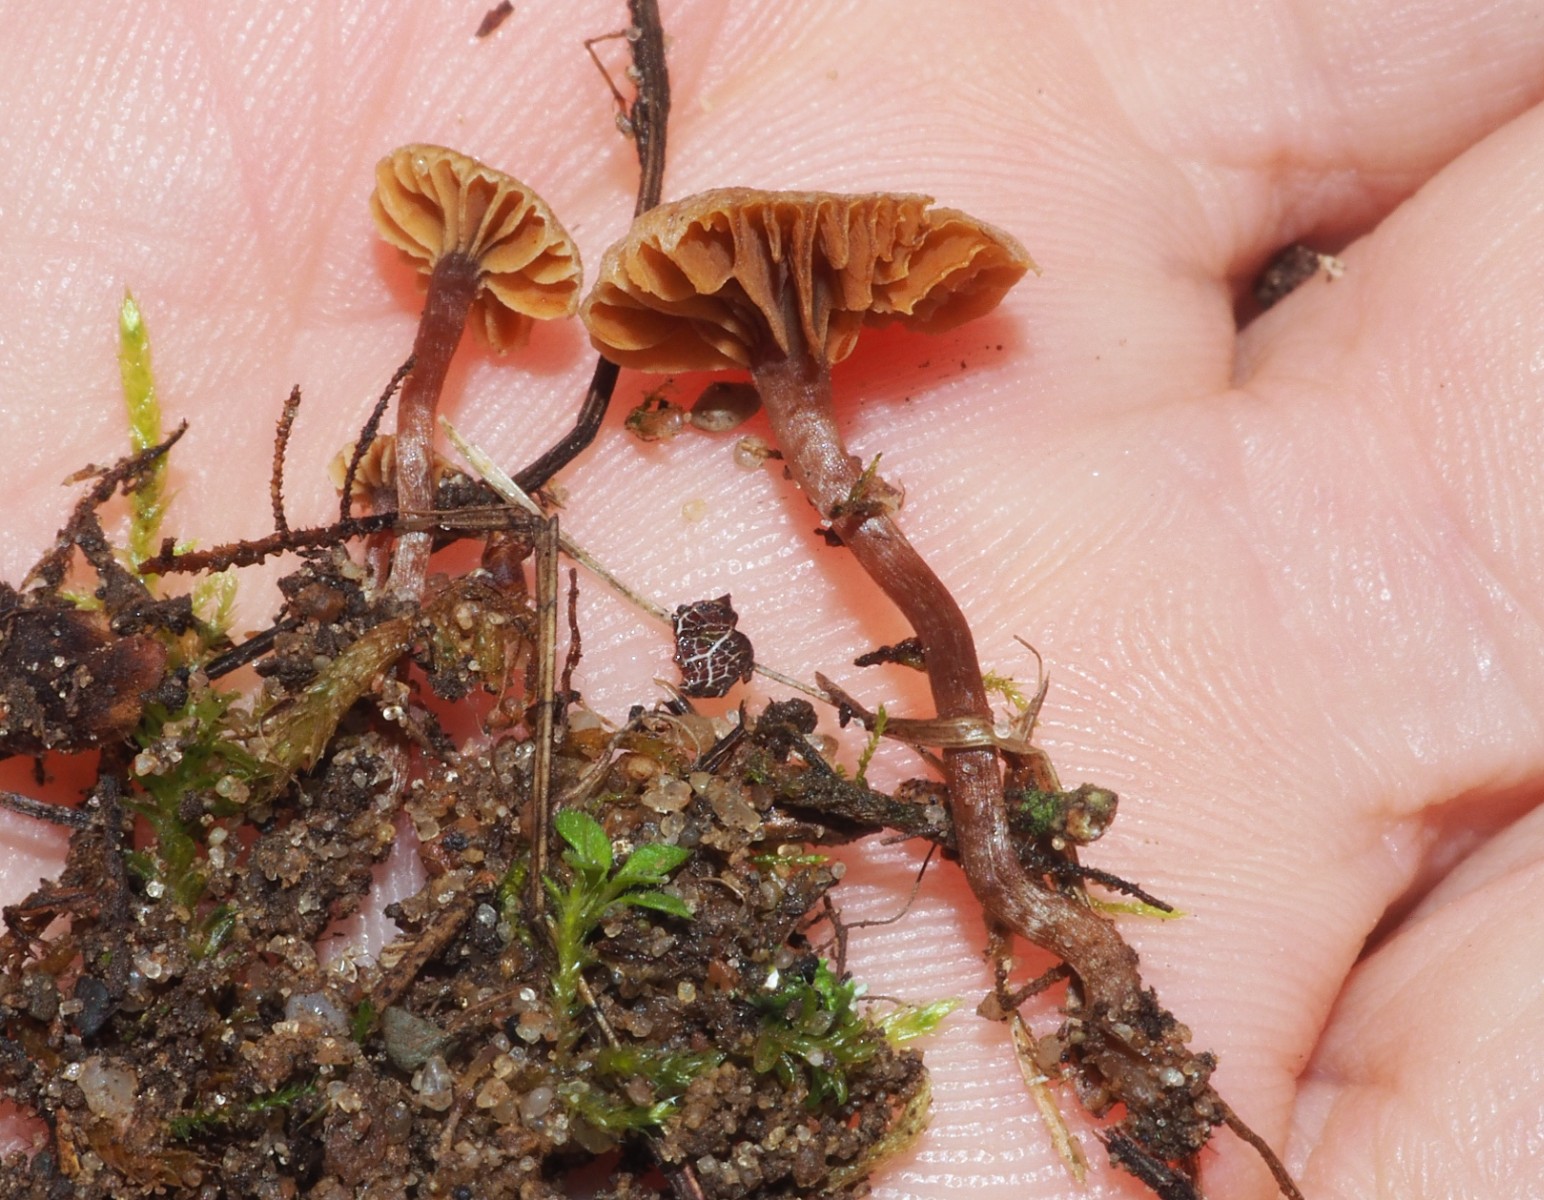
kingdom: Fungi
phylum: Basidiomycota
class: Agaricomycetes
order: Agaricales
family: Tubariaceae
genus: Tubaria
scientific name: Tubaria furfuracea
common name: kliddet fnughat
